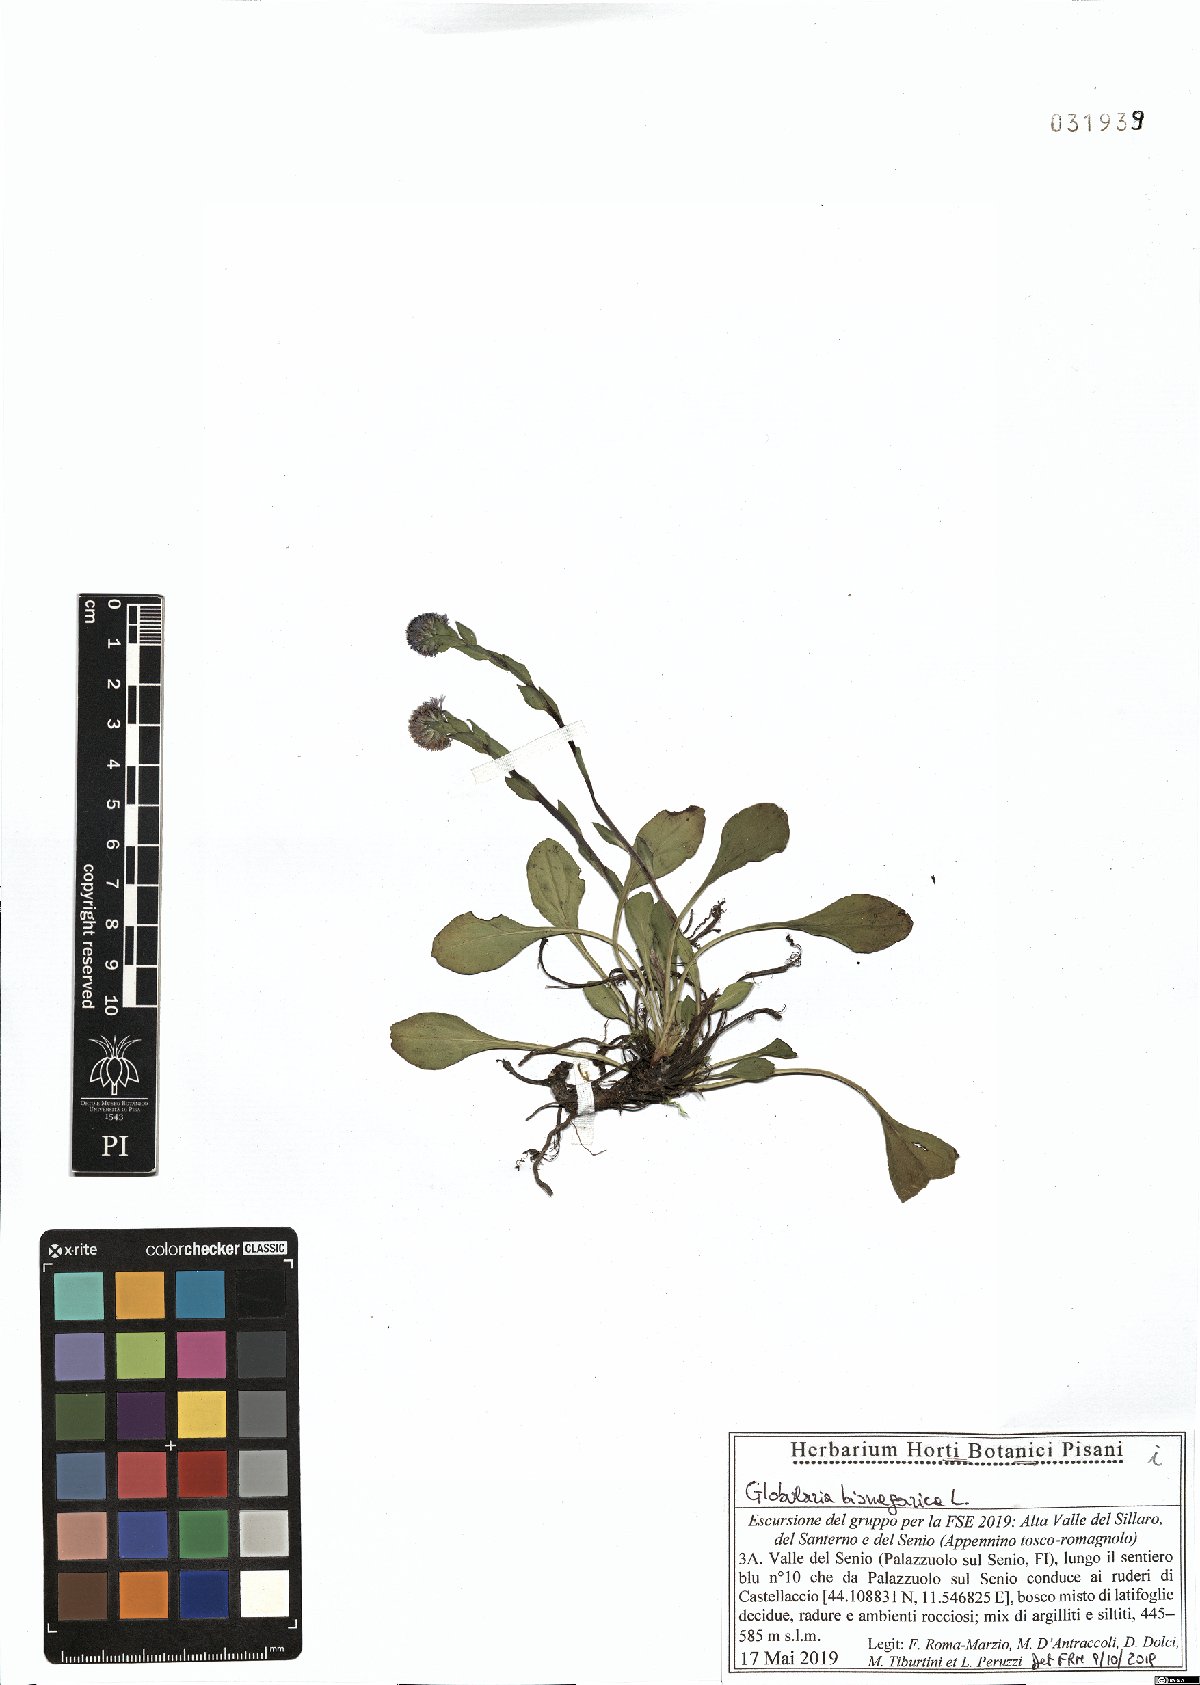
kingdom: Plantae
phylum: Tracheophyta
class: Magnoliopsida
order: Lamiales
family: Plantaginaceae
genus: Globularia
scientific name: Globularia bisnagarica
